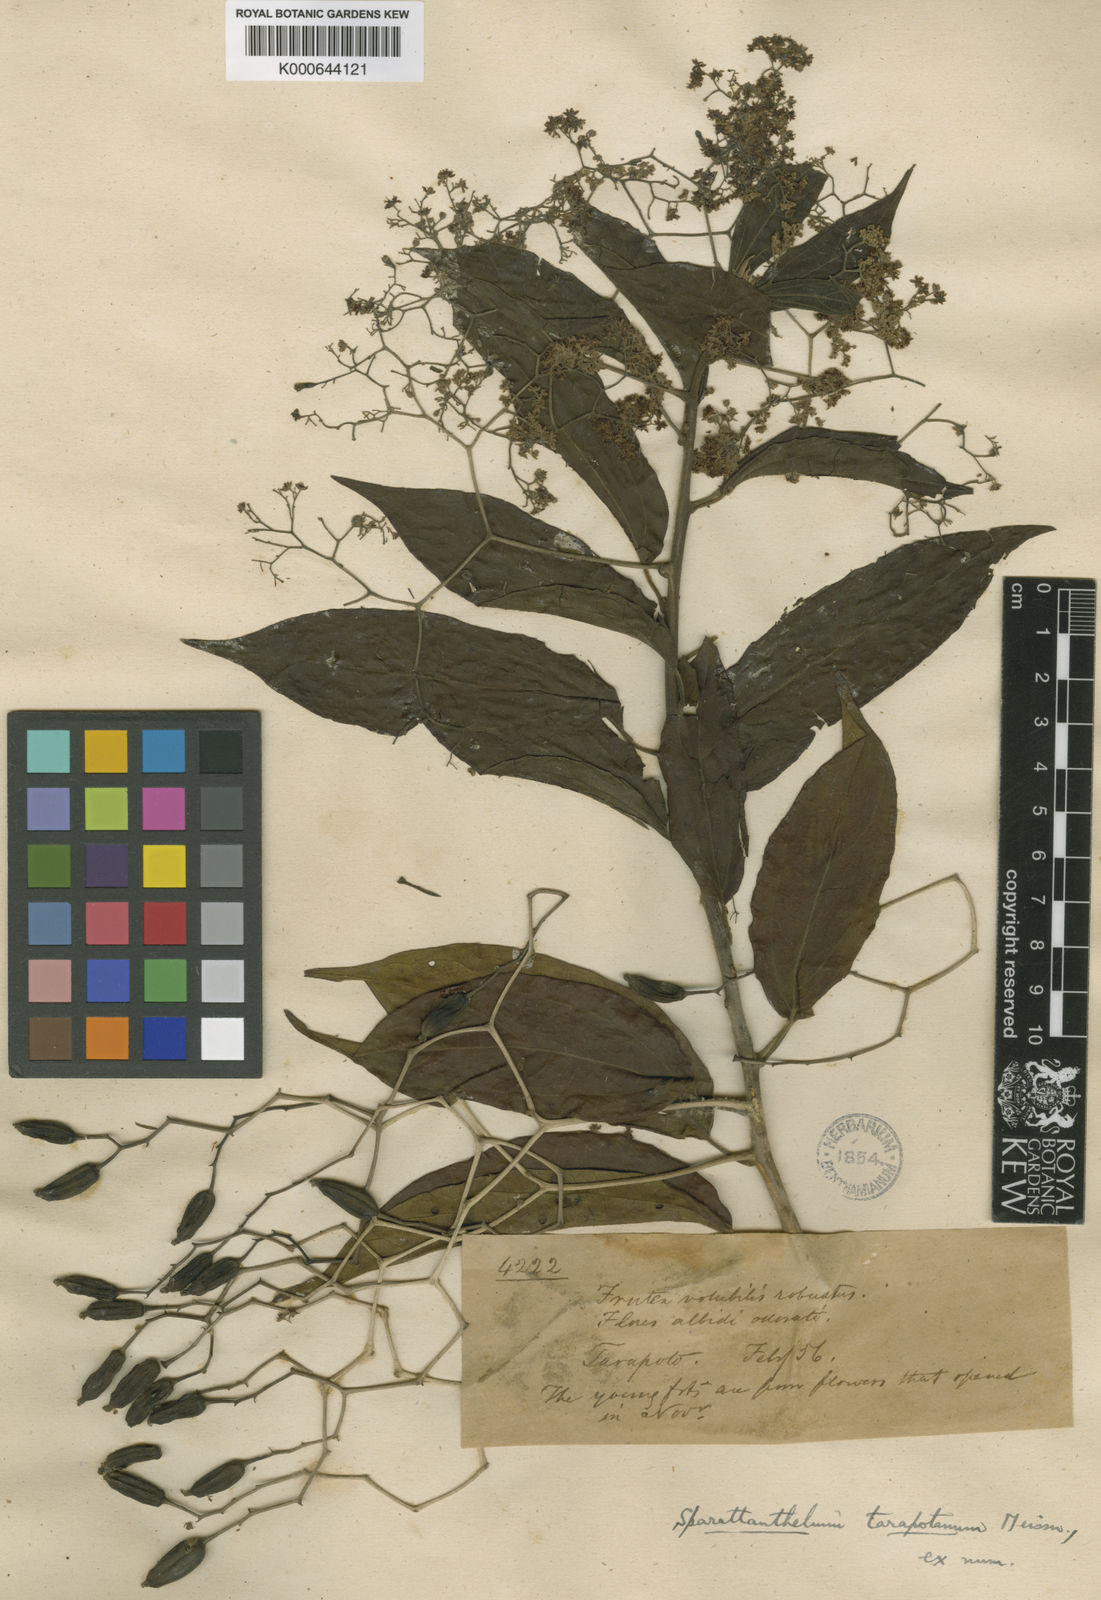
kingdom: Plantae
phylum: Tracheophyta
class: Magnoliopsida
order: Laurales
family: Hernandiaceae
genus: Sparattanthelium
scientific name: Sparattanthelium tarapotanum
